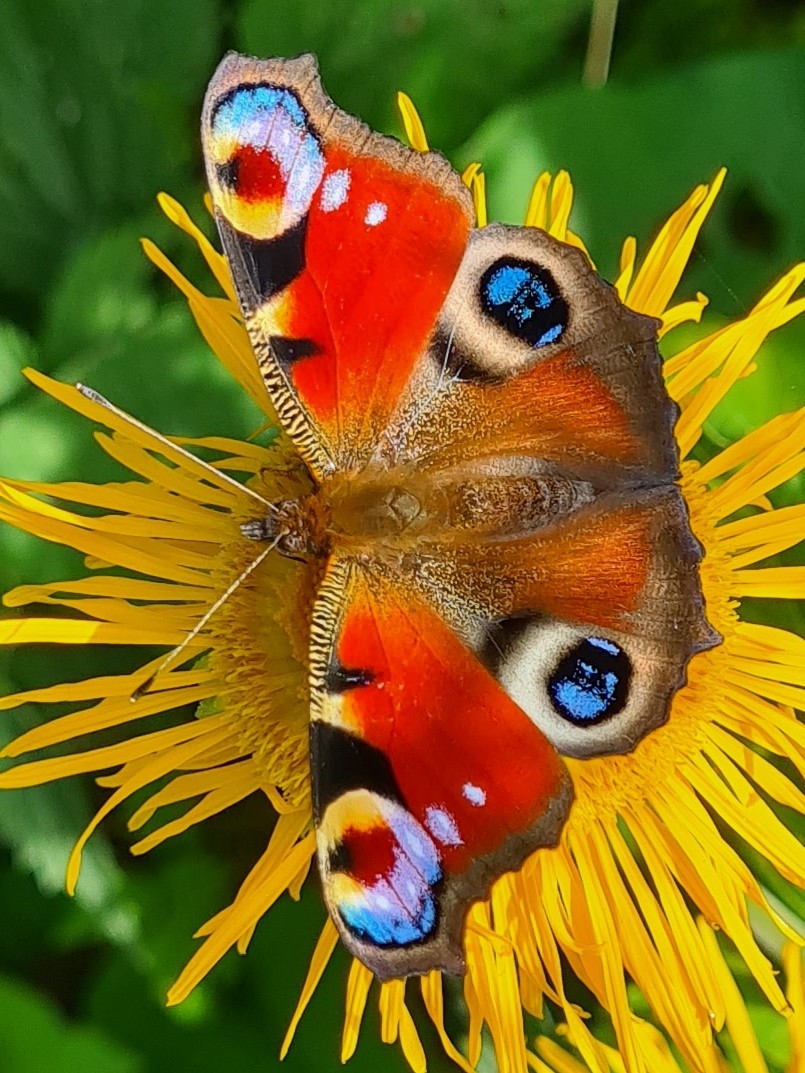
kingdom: Animalia
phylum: Arthropoda
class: Insecta
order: Lepidoptera
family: Nymphalidae
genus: Aglais
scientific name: Aglais io
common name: Dagpåfugleøje
